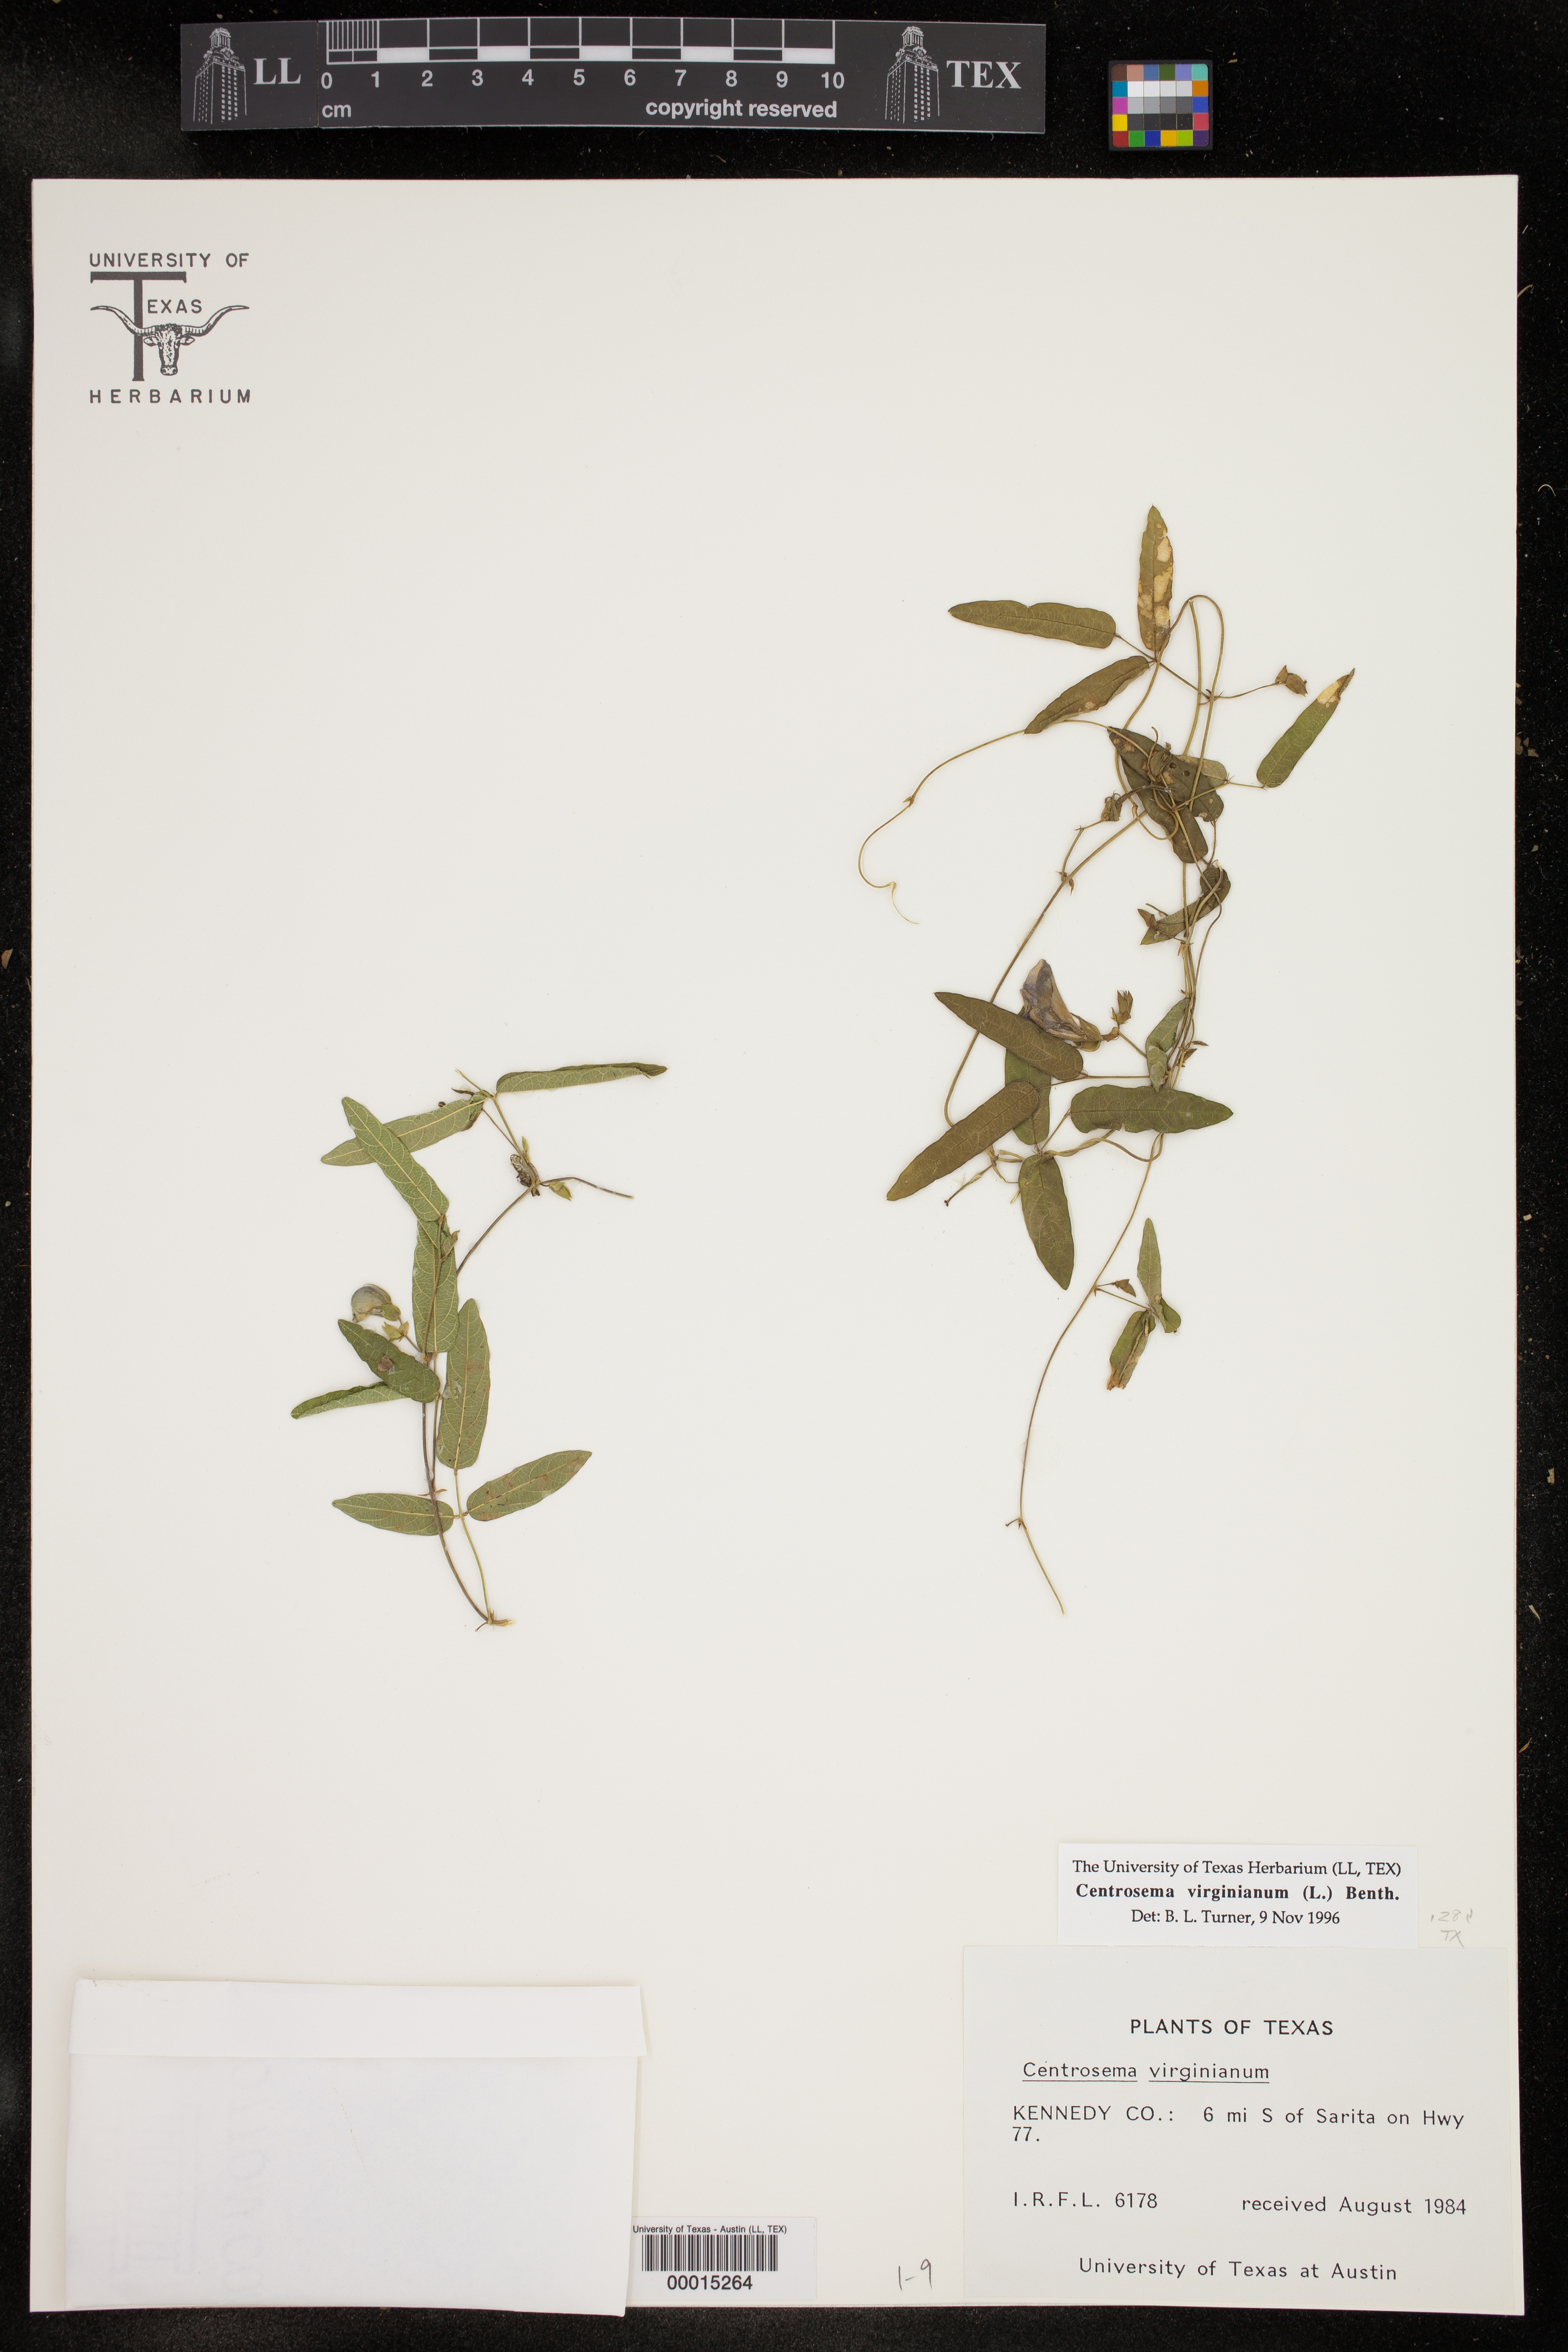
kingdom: Plantae
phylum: Tracheophyta
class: Magnoliopsida
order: Fabales
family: Fabaceae
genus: Centrosema
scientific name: Centrosema virginianum
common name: Butterfly-pea
